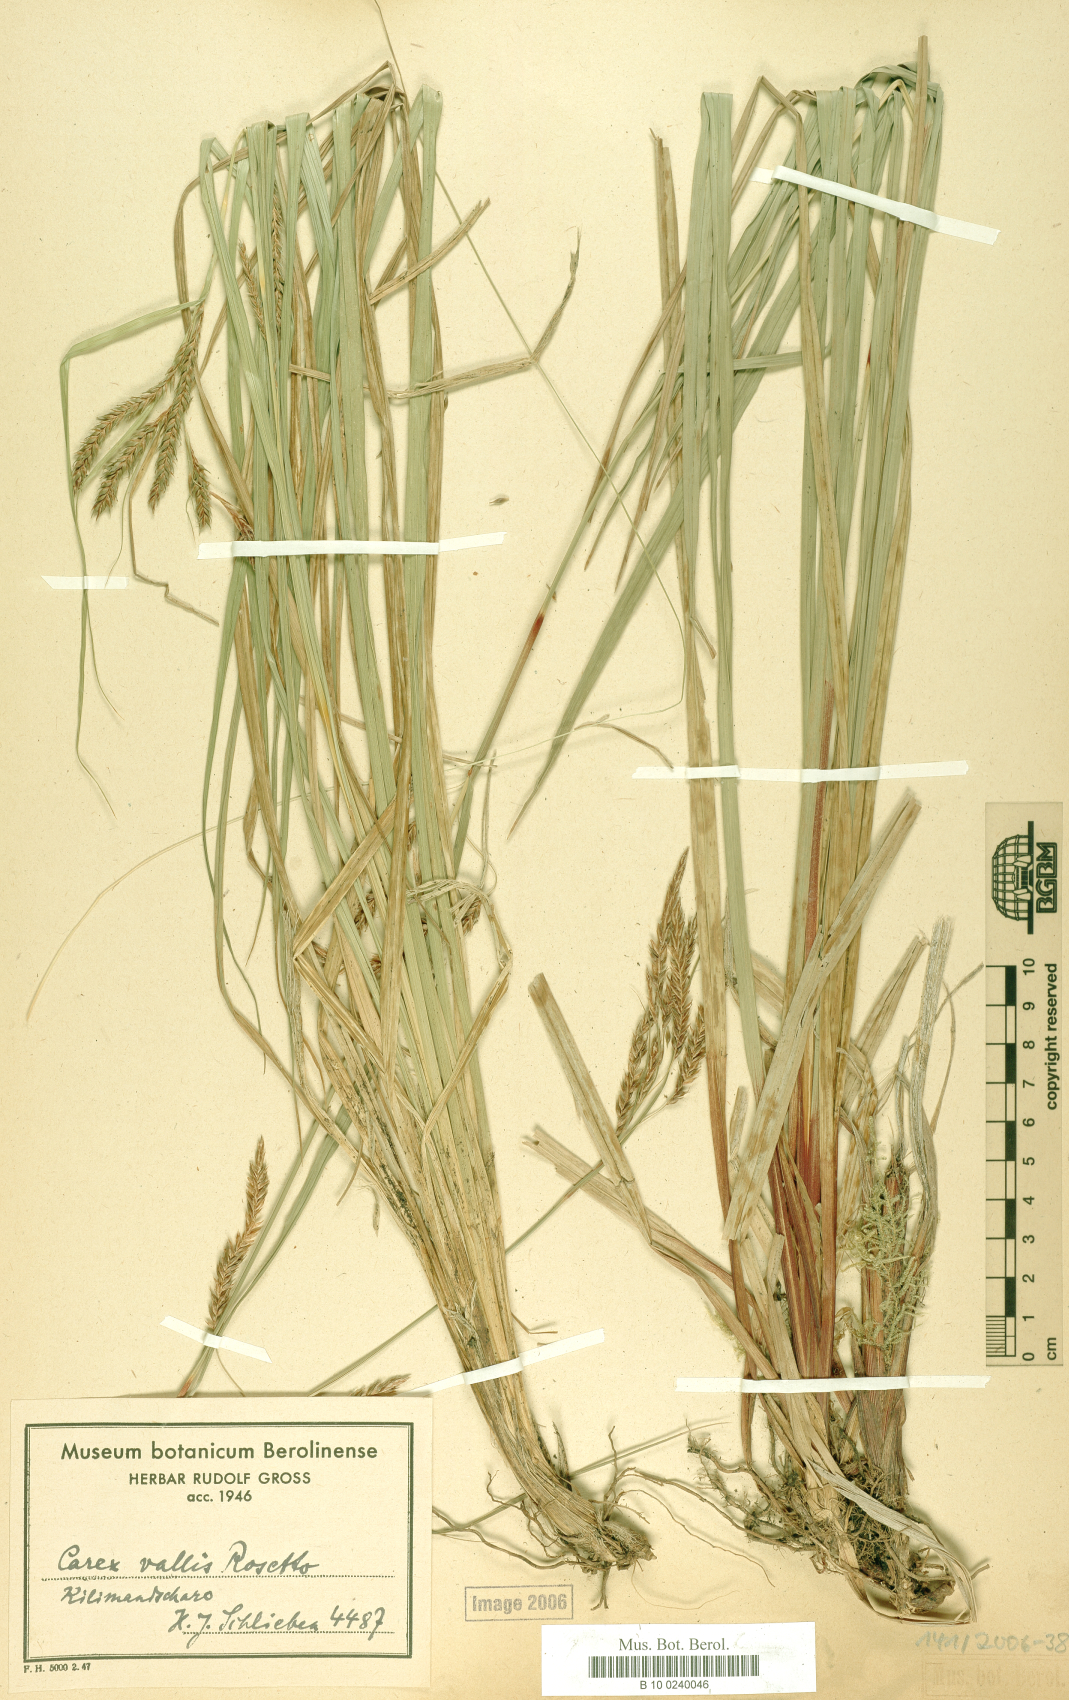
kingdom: Plantae
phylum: Tracheophyta
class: Liliopsida
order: Poales
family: Cyperaceae
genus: Carex
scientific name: Carex fischeri
